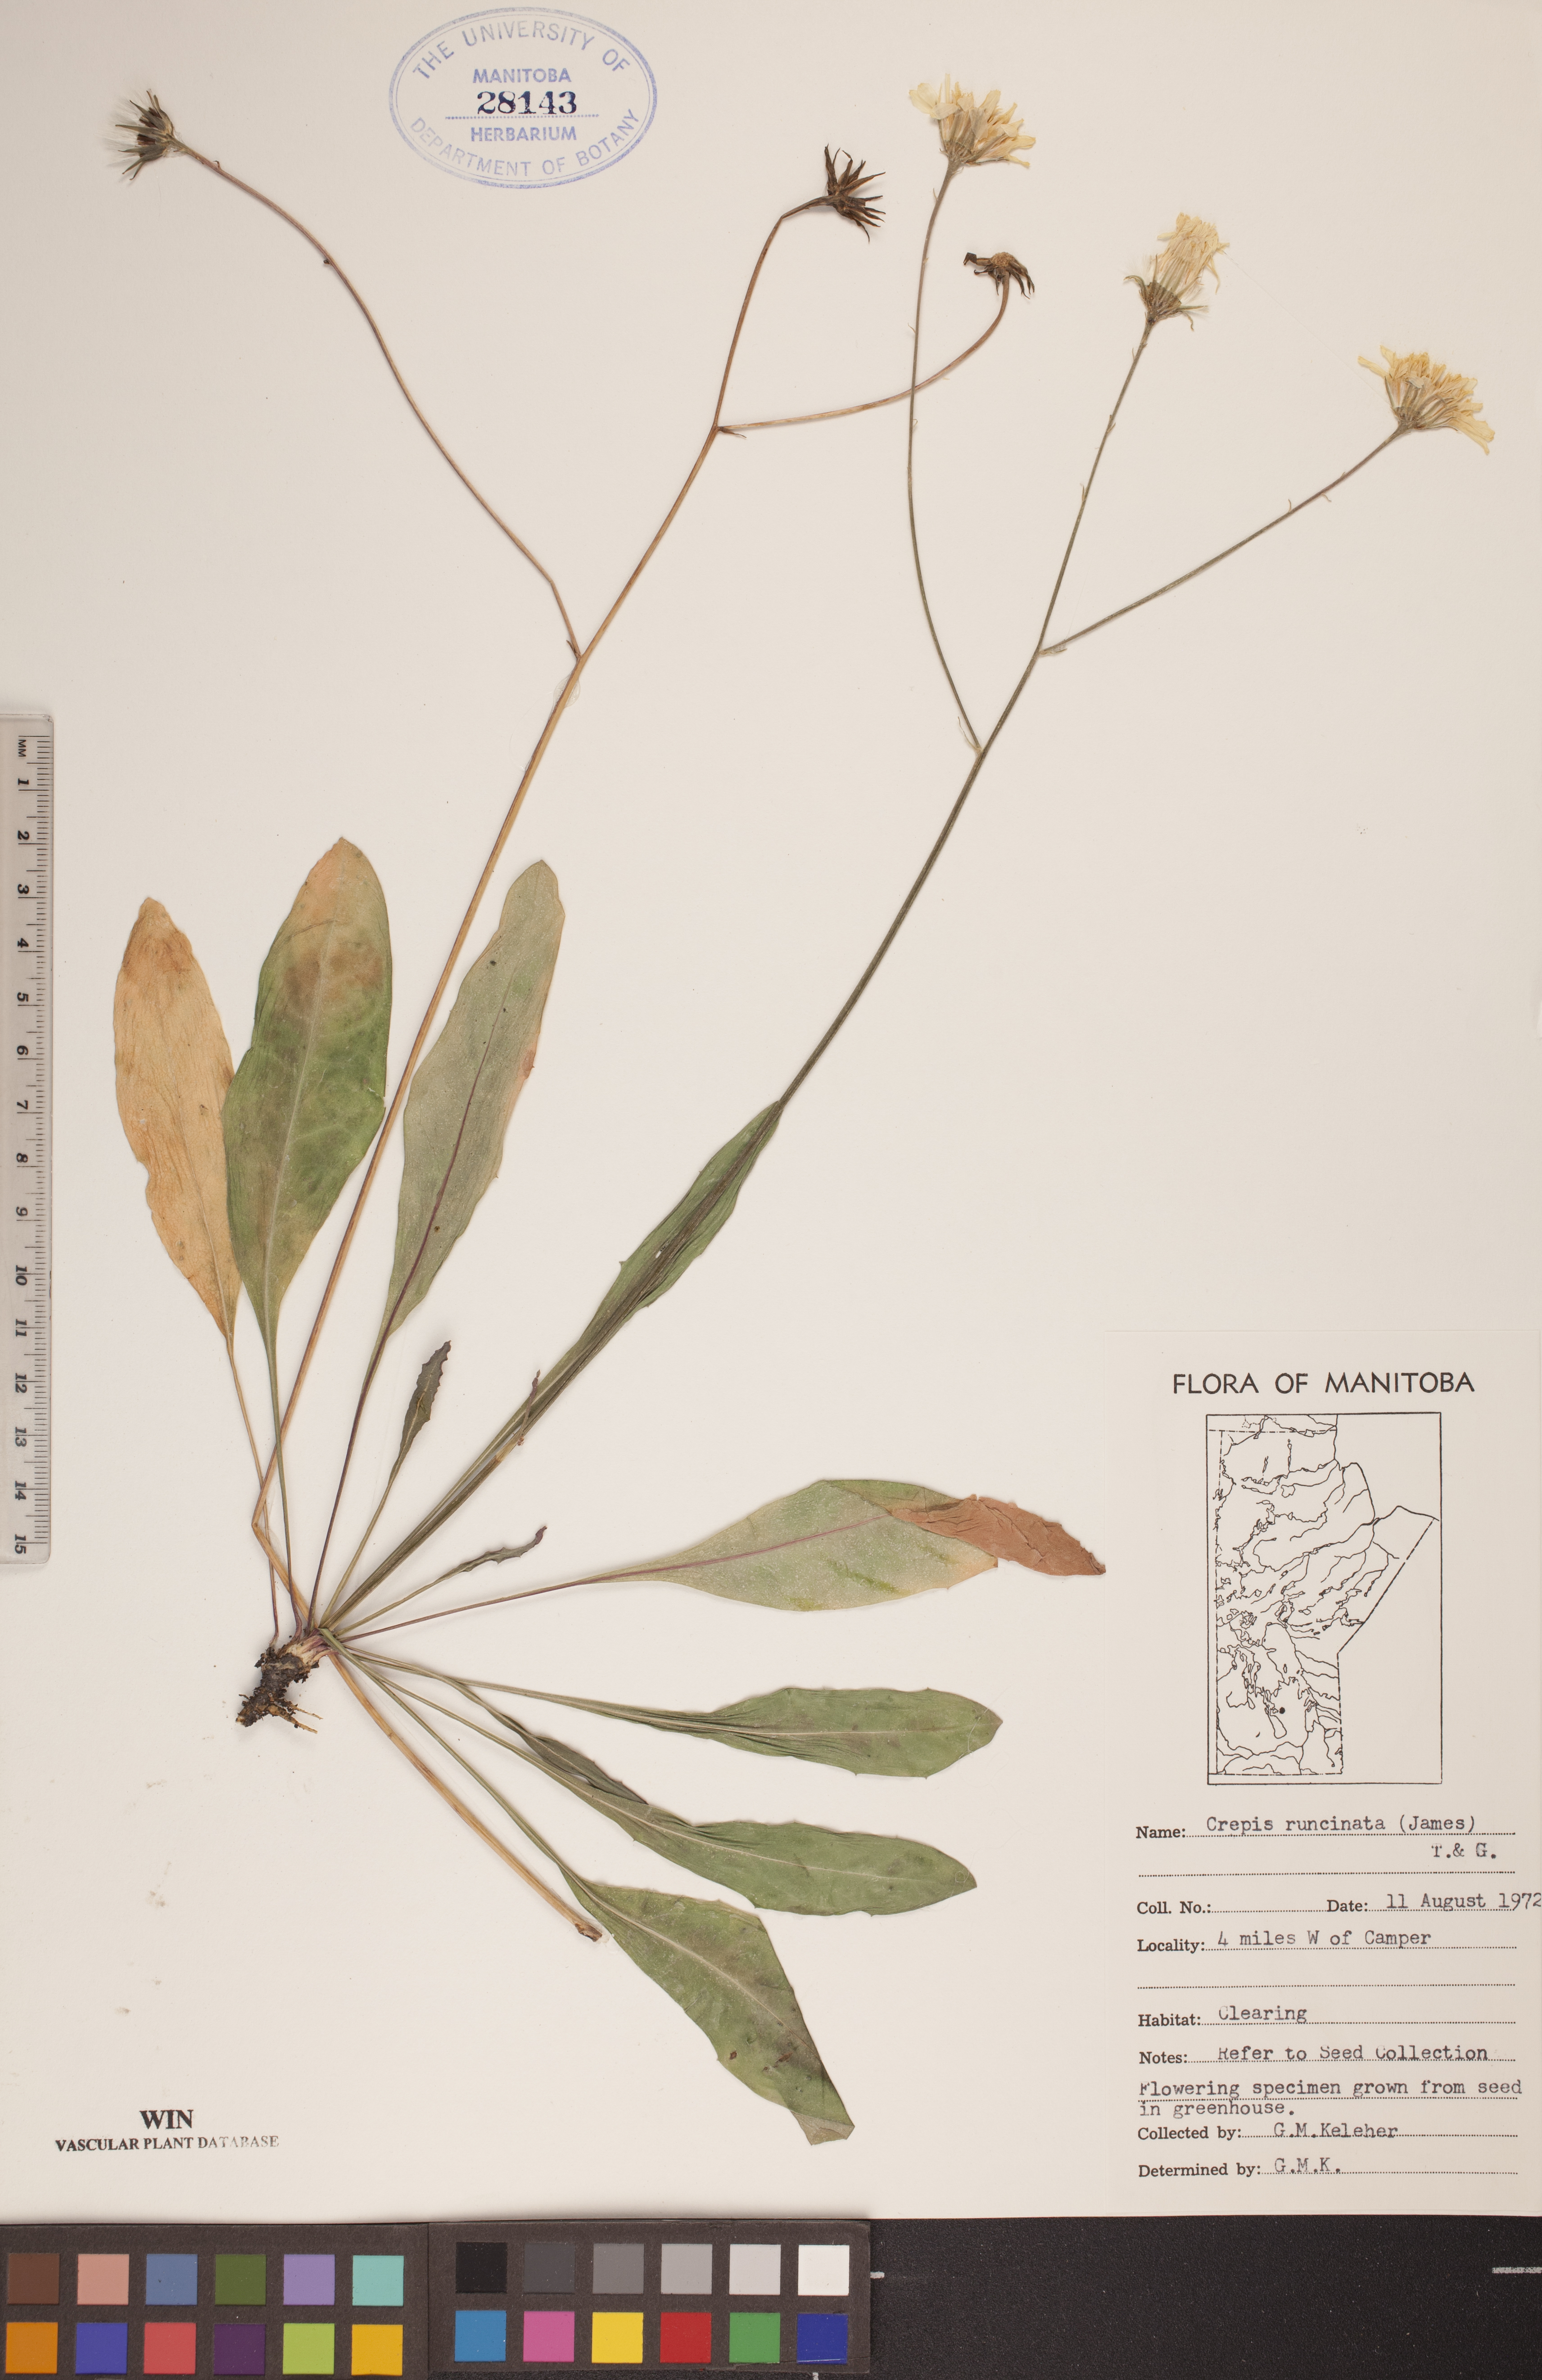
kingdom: Plantae
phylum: Tracheophyta
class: Magnoliopsida
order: Asterales
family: Asteraceae
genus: Crepis
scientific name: Crepis runcinata
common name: Dandelion hawksbeard
